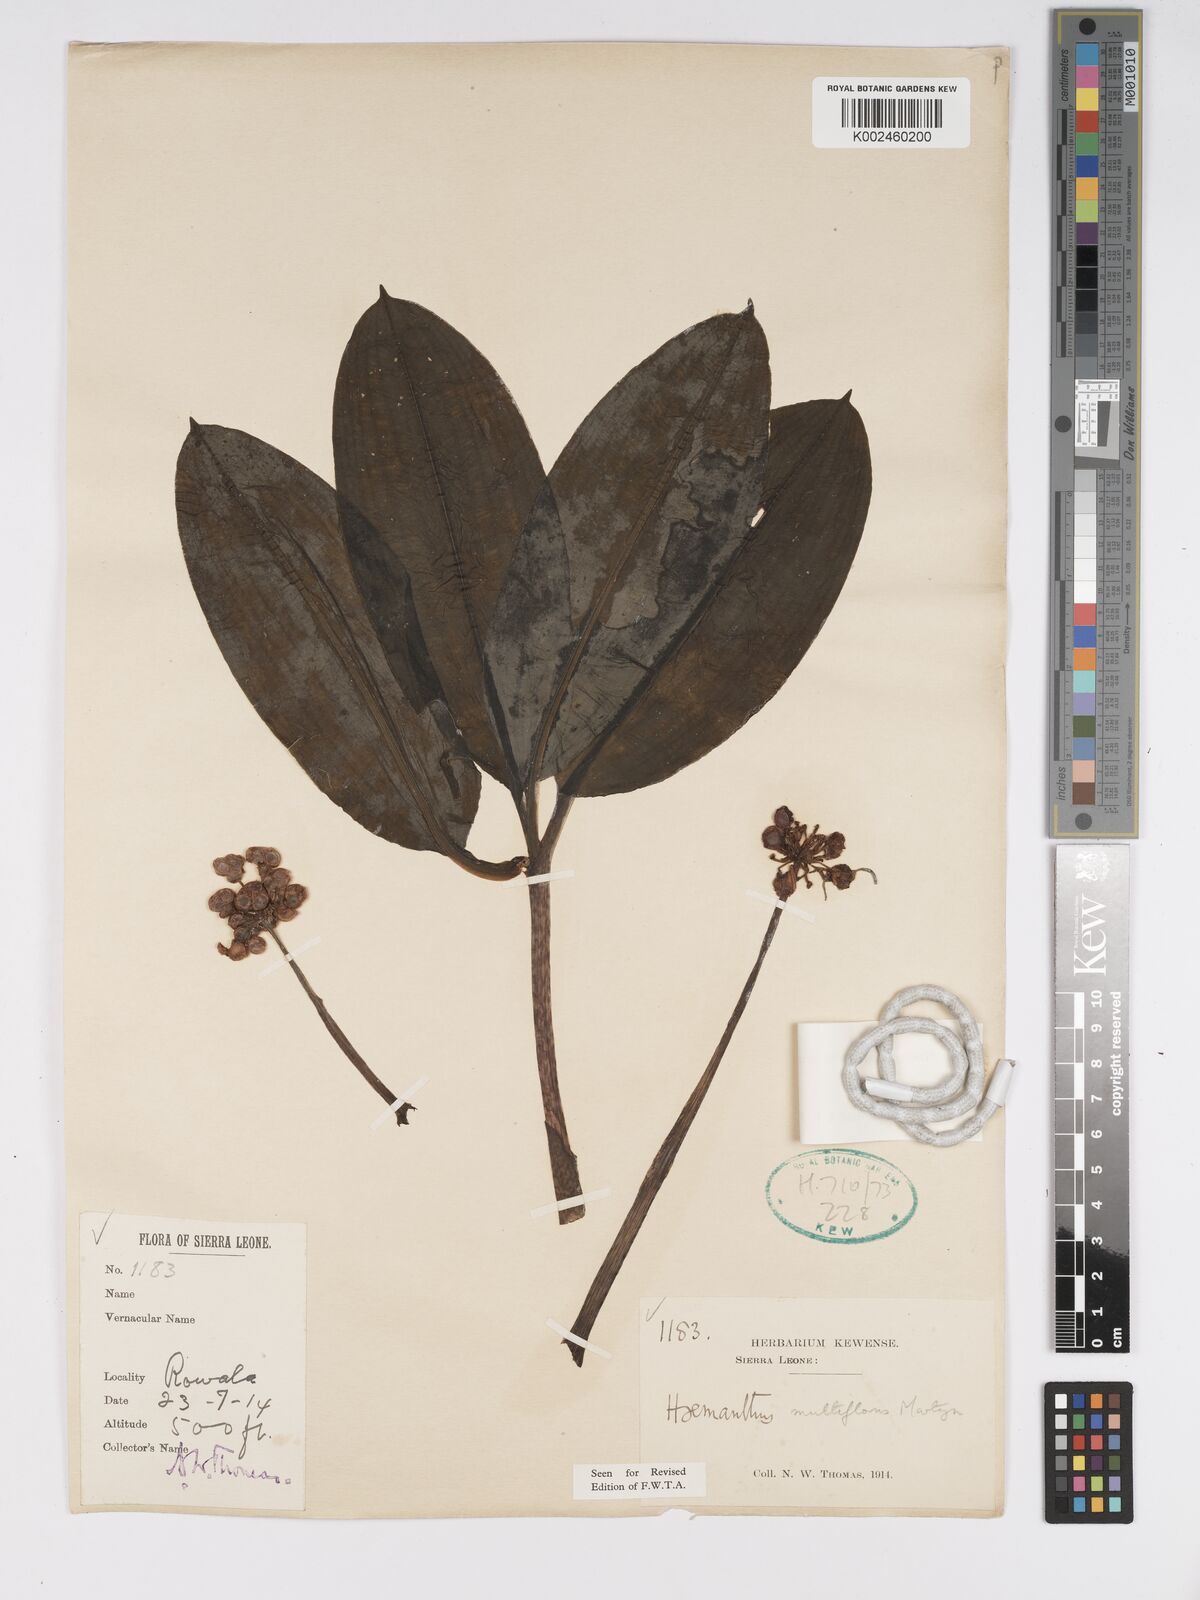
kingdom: Plantae
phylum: Tracheophyta
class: Liliopsida
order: Asparagales
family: Amaryllidaceae
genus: Scadoxus
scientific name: Scadoxus multiflorus
